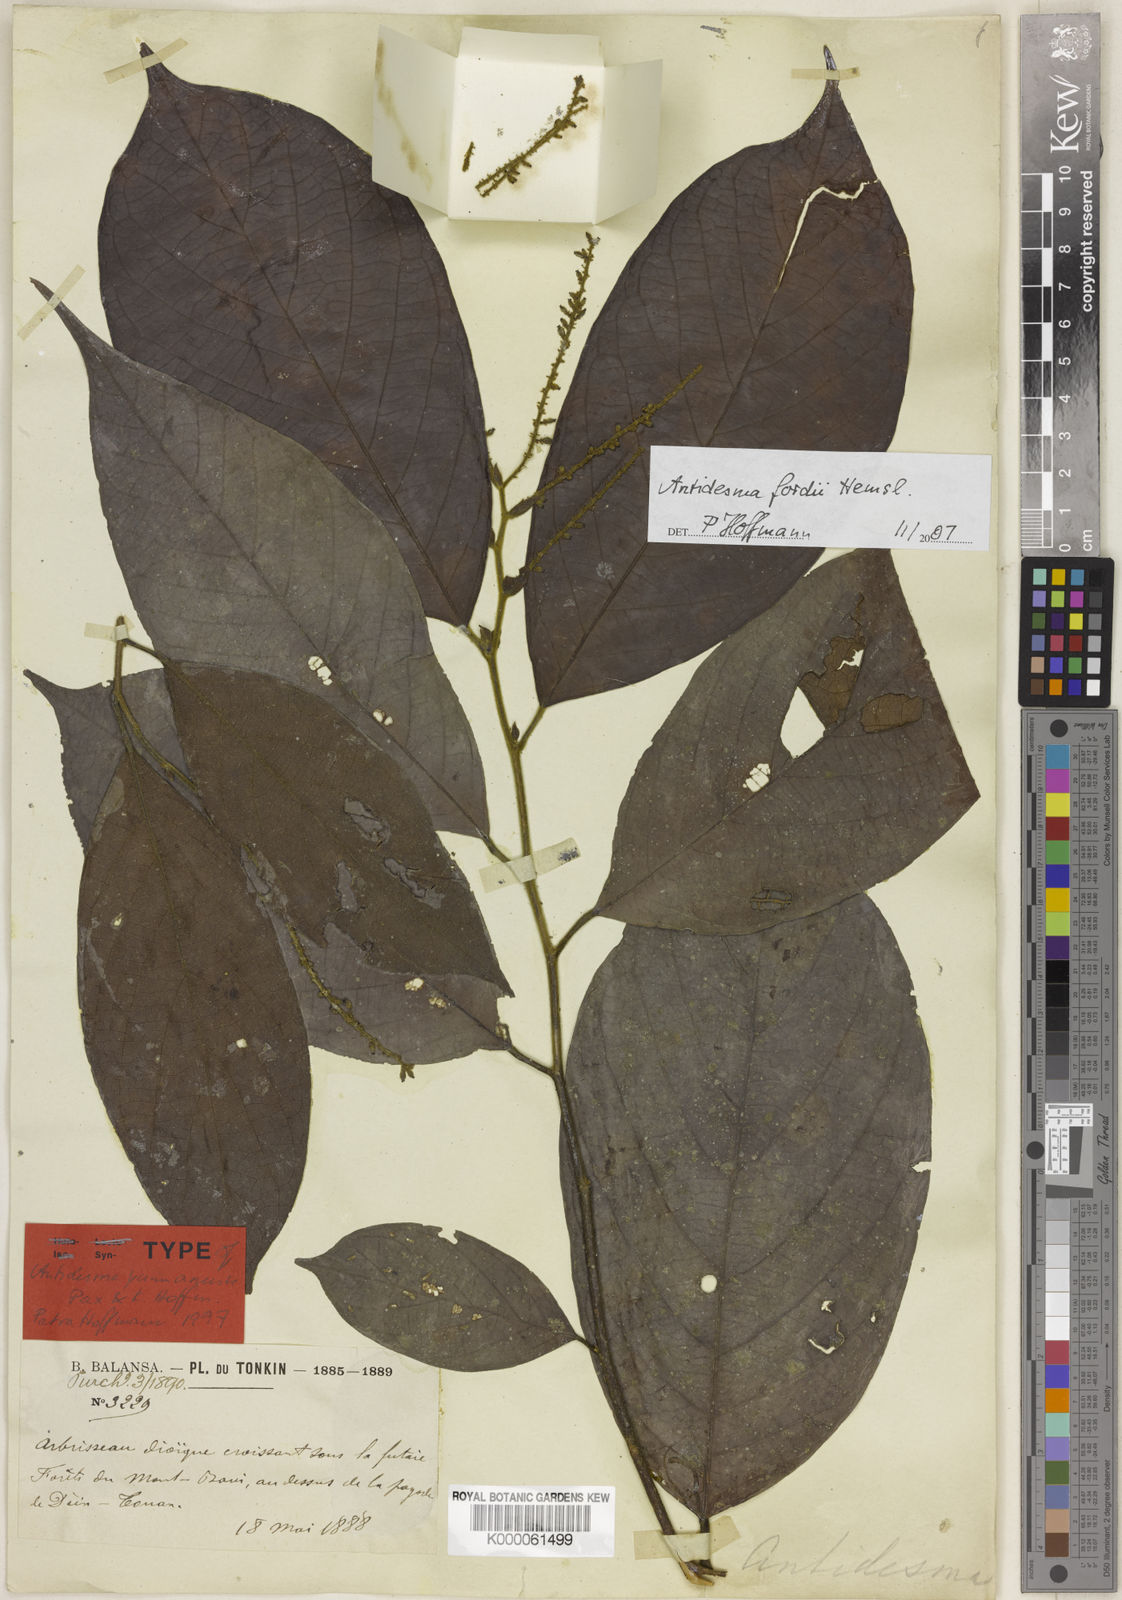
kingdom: Plantae
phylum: Tracheophyta
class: Magnoliopsida
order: Malpighiales
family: Phyllanthaceae
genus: Antidesma
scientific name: Antidesma fordii
